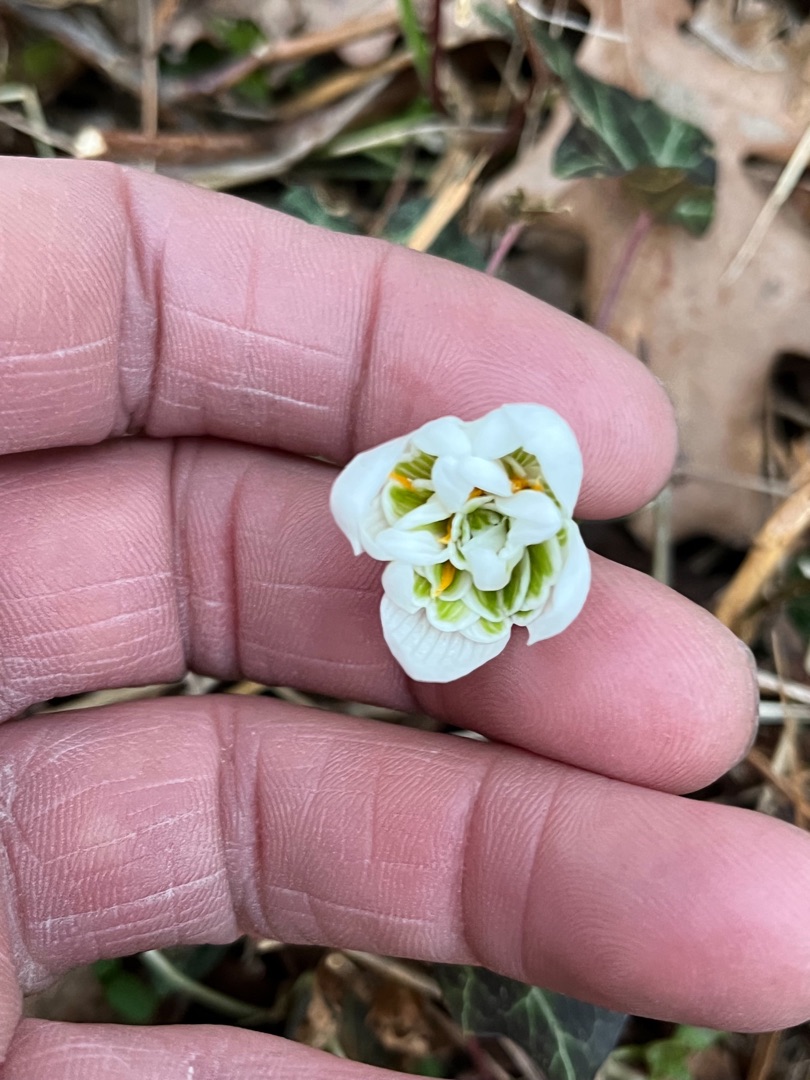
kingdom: Plantae
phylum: Tracheophyta
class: Liliopsida
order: Asparagales
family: Amaryllidaceae
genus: Galanthus
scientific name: Galanthus nivalis
